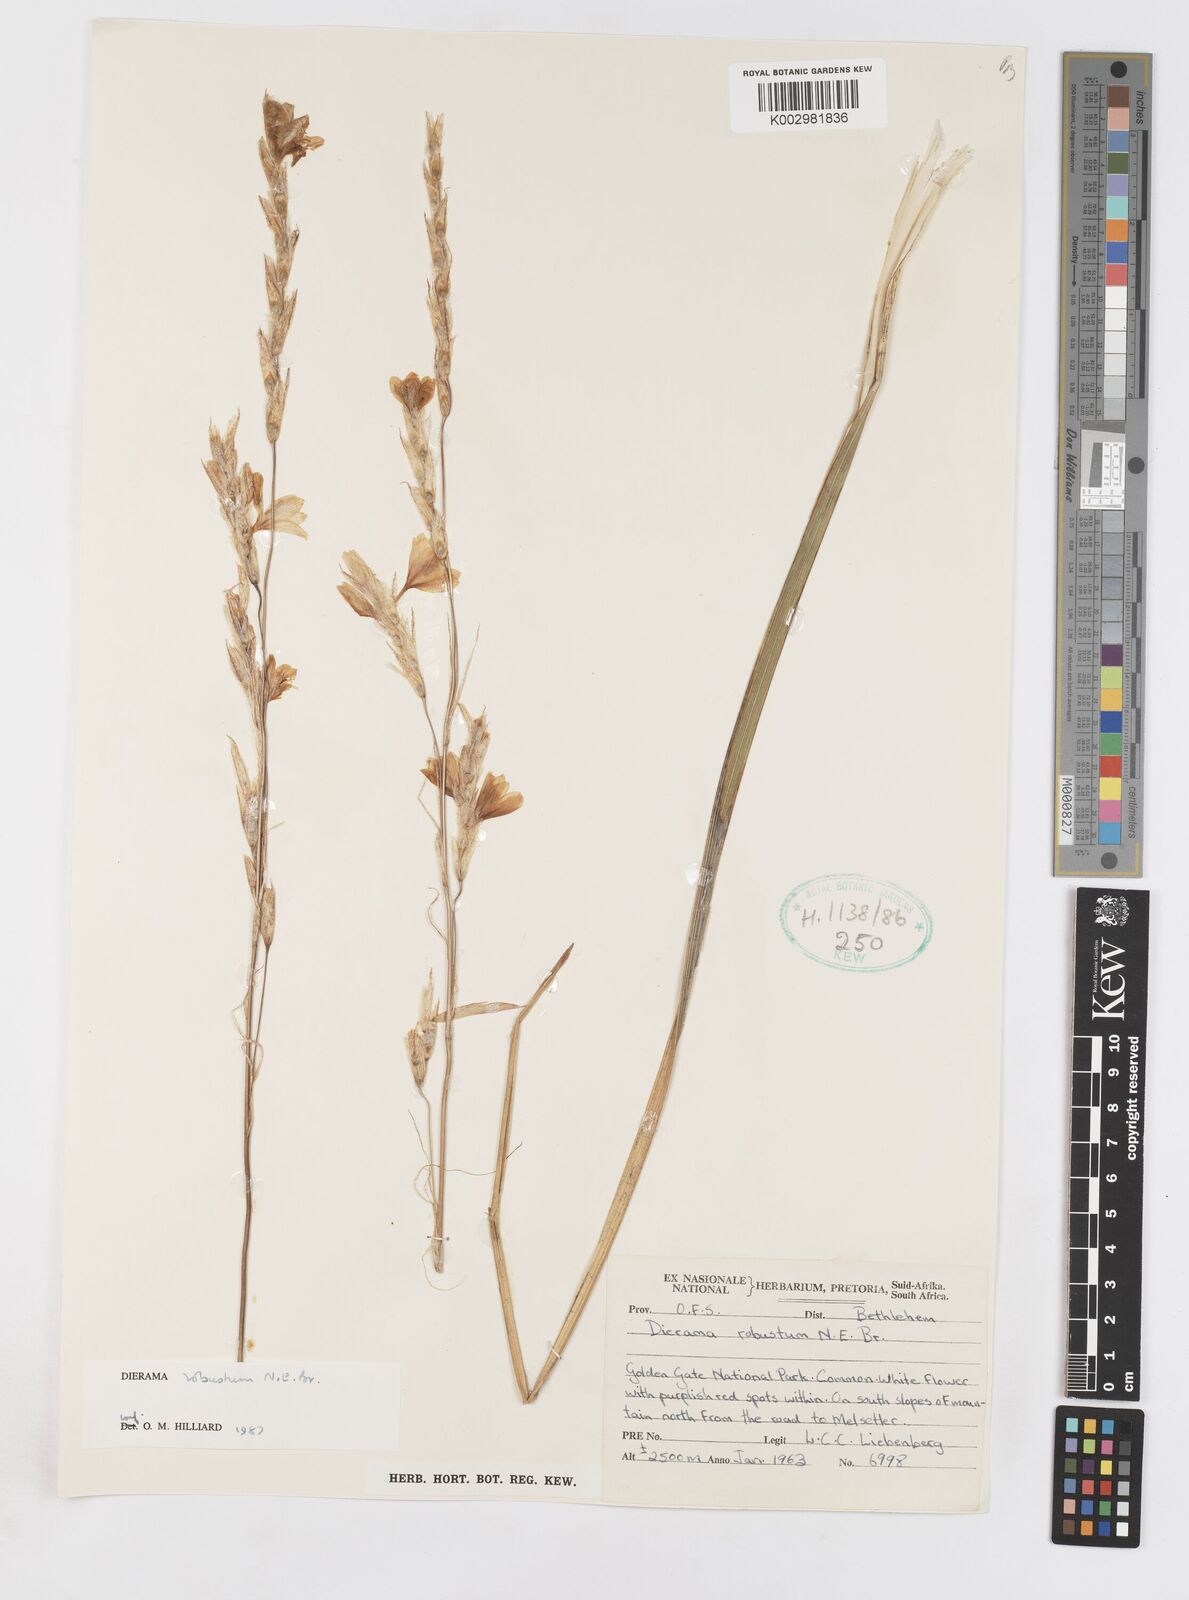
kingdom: Plantae
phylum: Tracheophyta
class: Liliopsida
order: Asparagales
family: Iridaceae
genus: Dierama
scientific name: Dierama robustum
